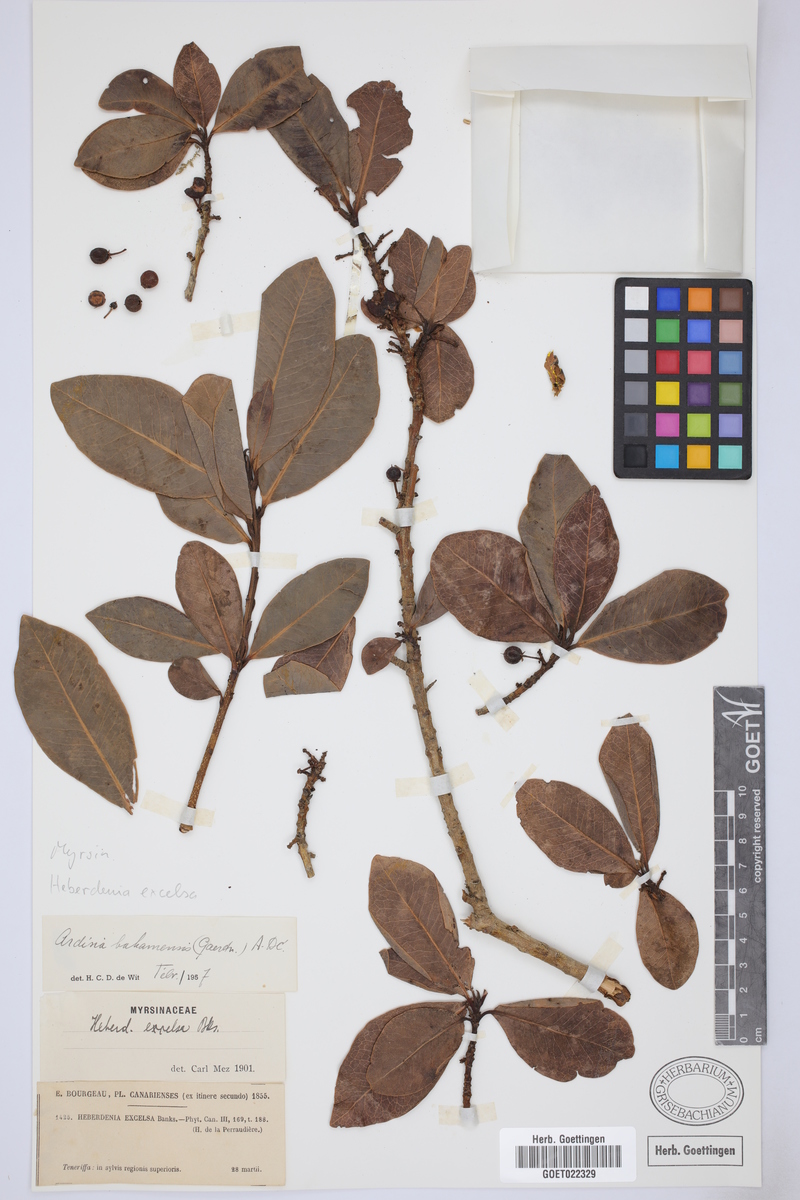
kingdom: Plantae
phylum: Tracheophyta
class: Magnoliopsida
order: Ericales
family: Primulaceae
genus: Heberdenia
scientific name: Heberdenia excelsa
